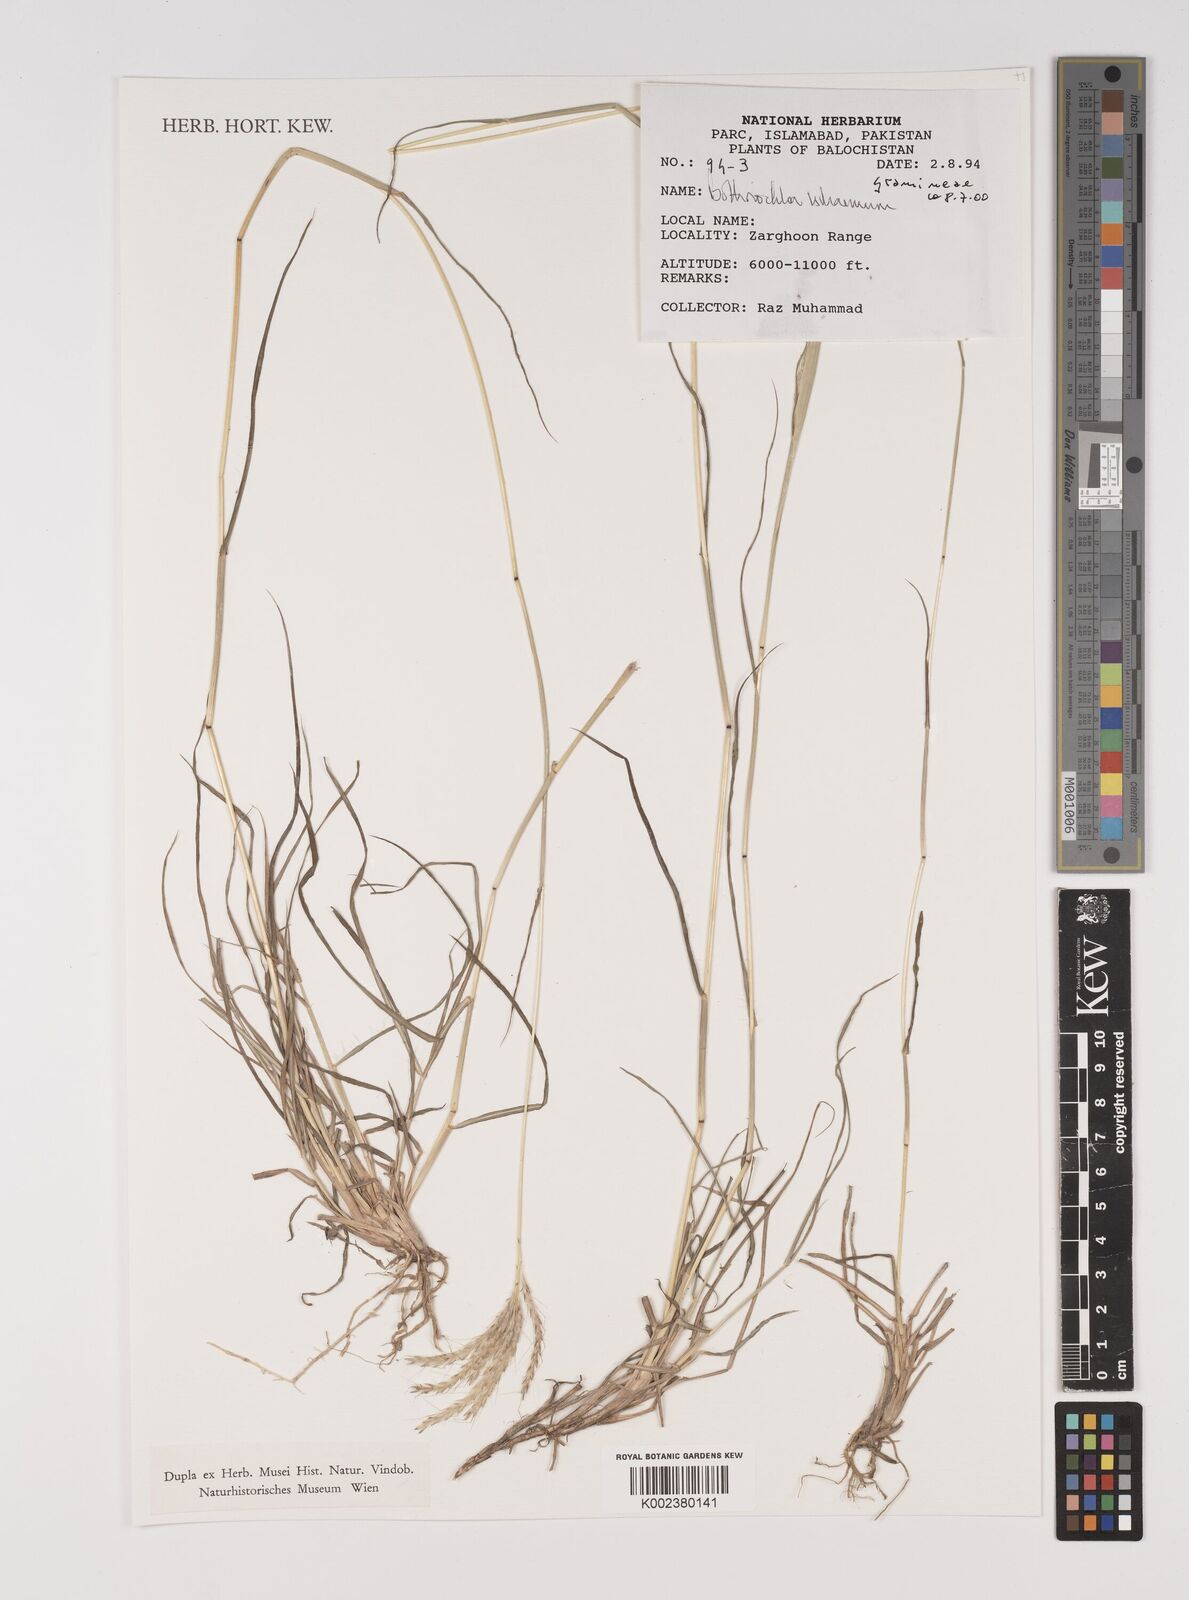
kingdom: Plantae
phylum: Tracheophyta
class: Liliopsida
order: Poales
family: Poaceae
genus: Bothriochloa
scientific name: Bothriochloa ischaemum
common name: Yellow bluestem
